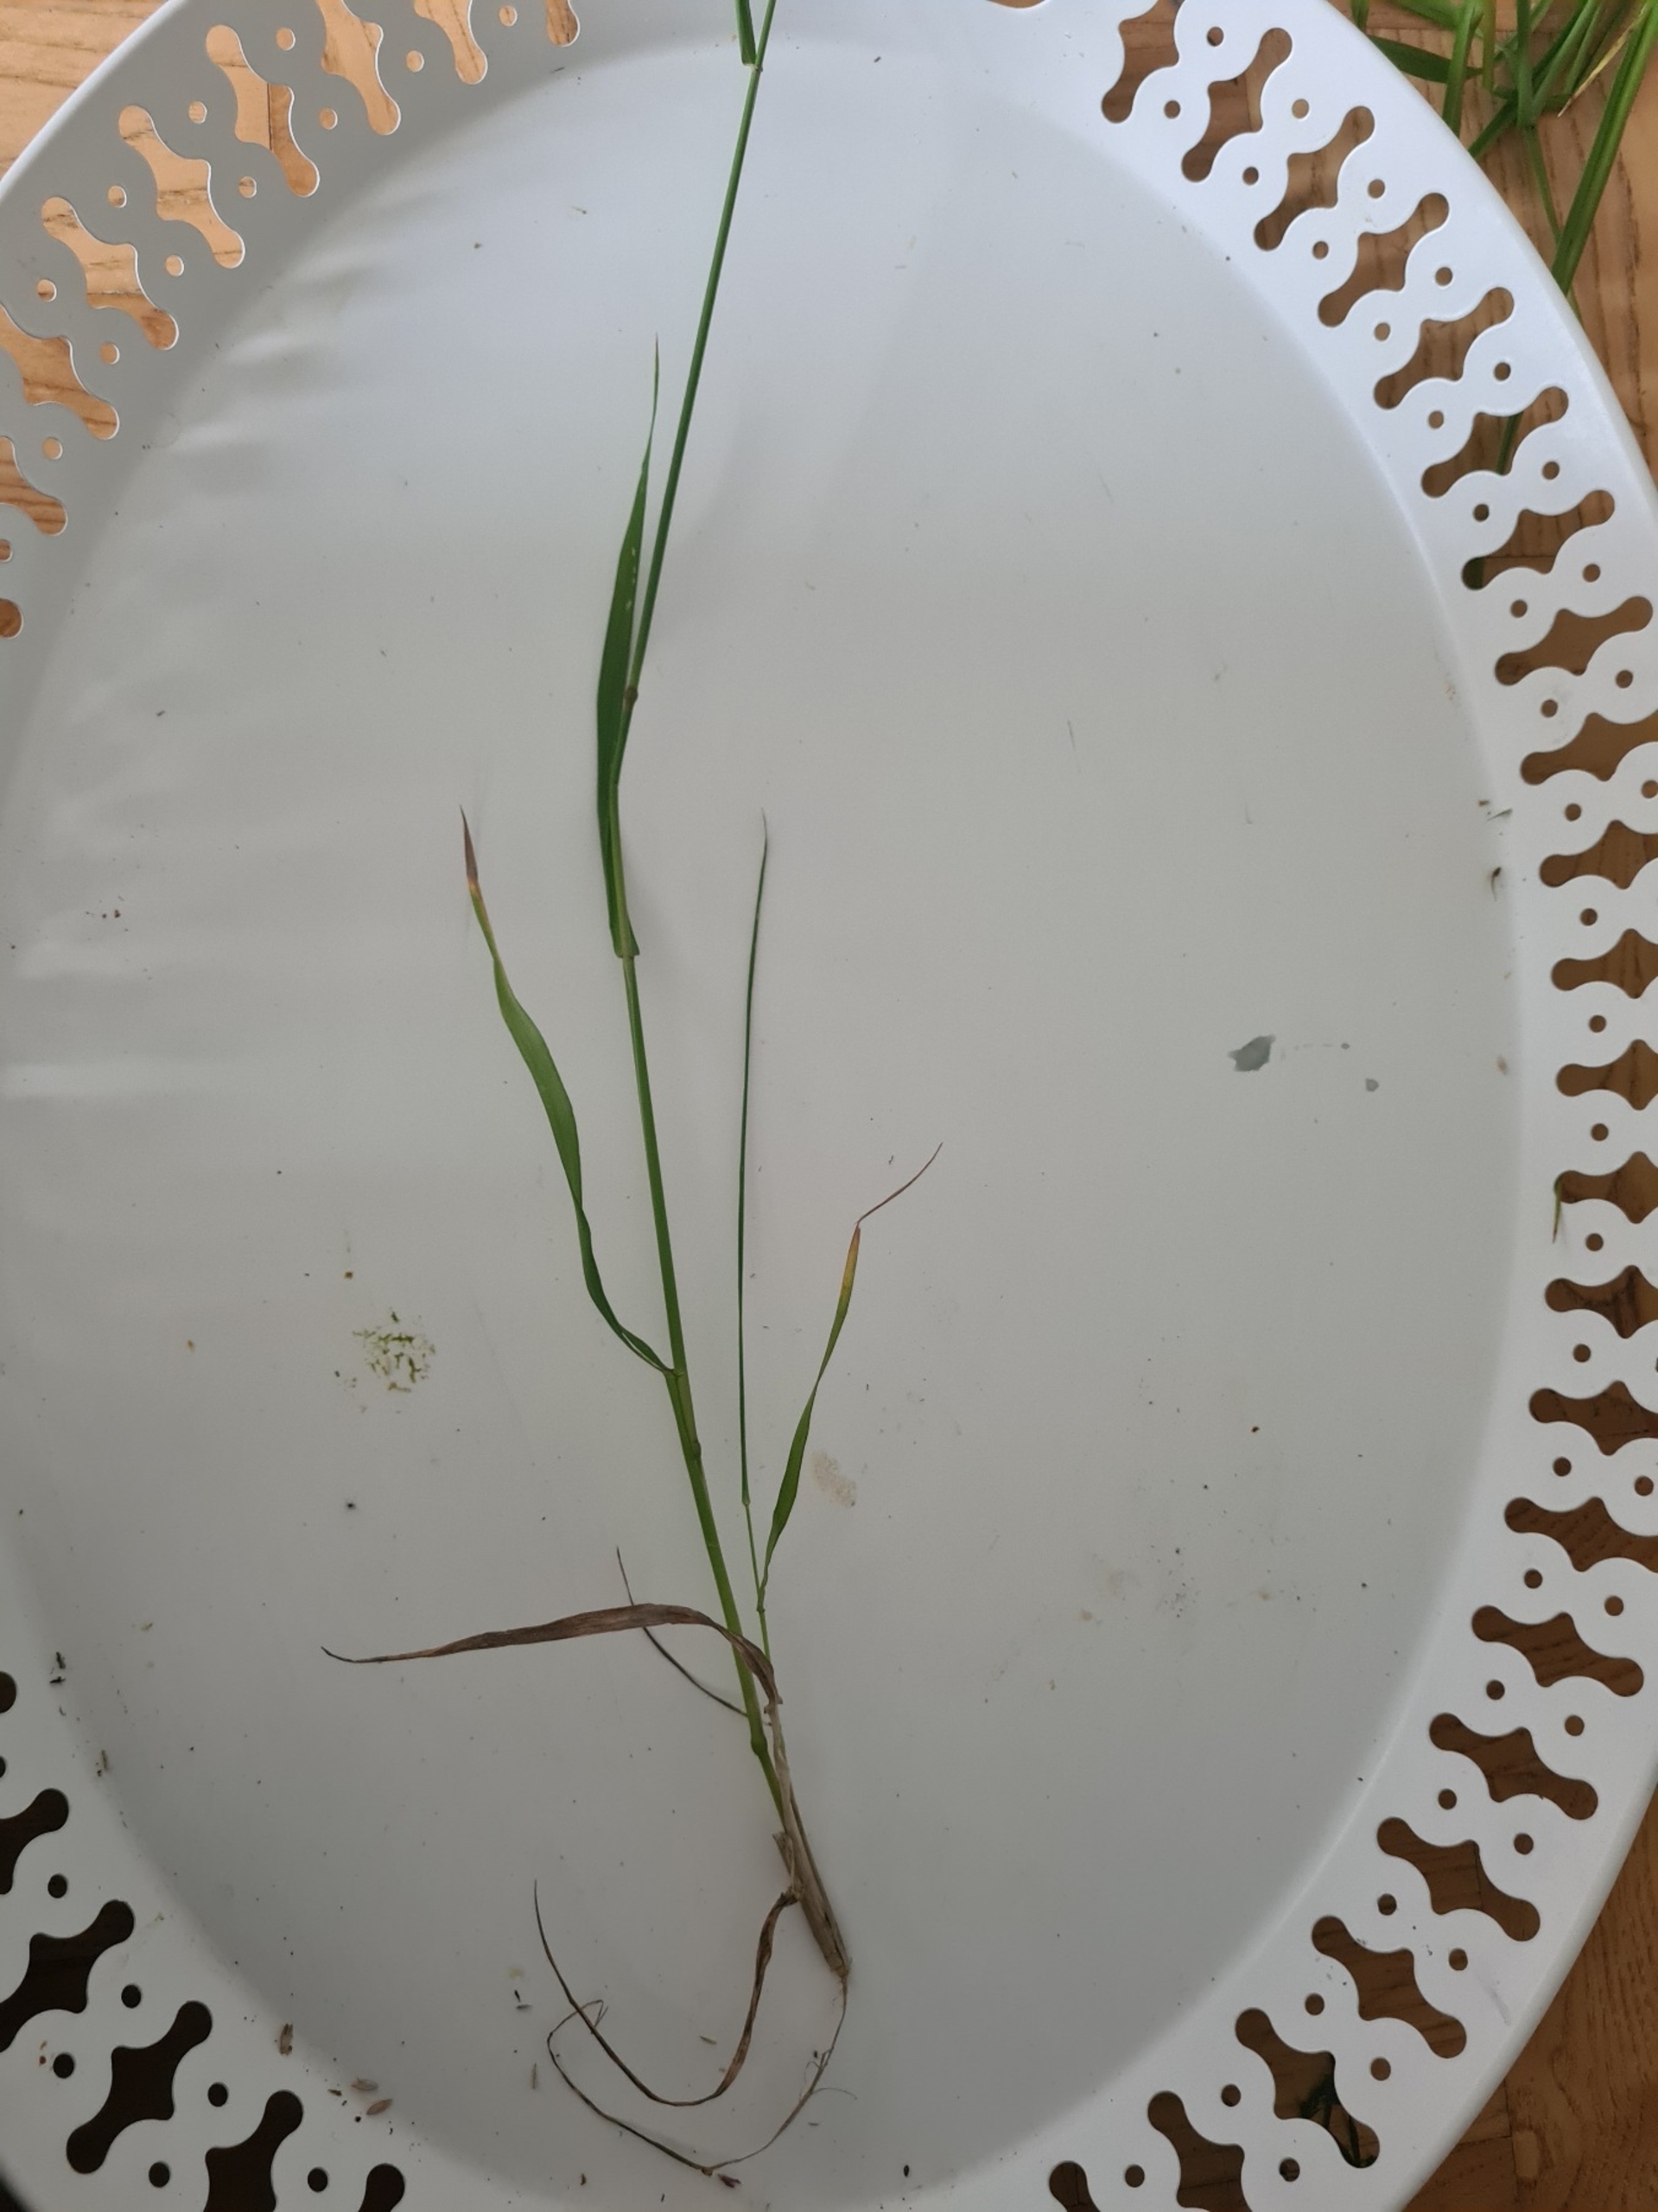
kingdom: Plantae
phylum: Tracheophyta
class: Liliopsida
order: Poales
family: Poaceae
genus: Elymus
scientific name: Elymus repens
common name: Almindelig kvik
